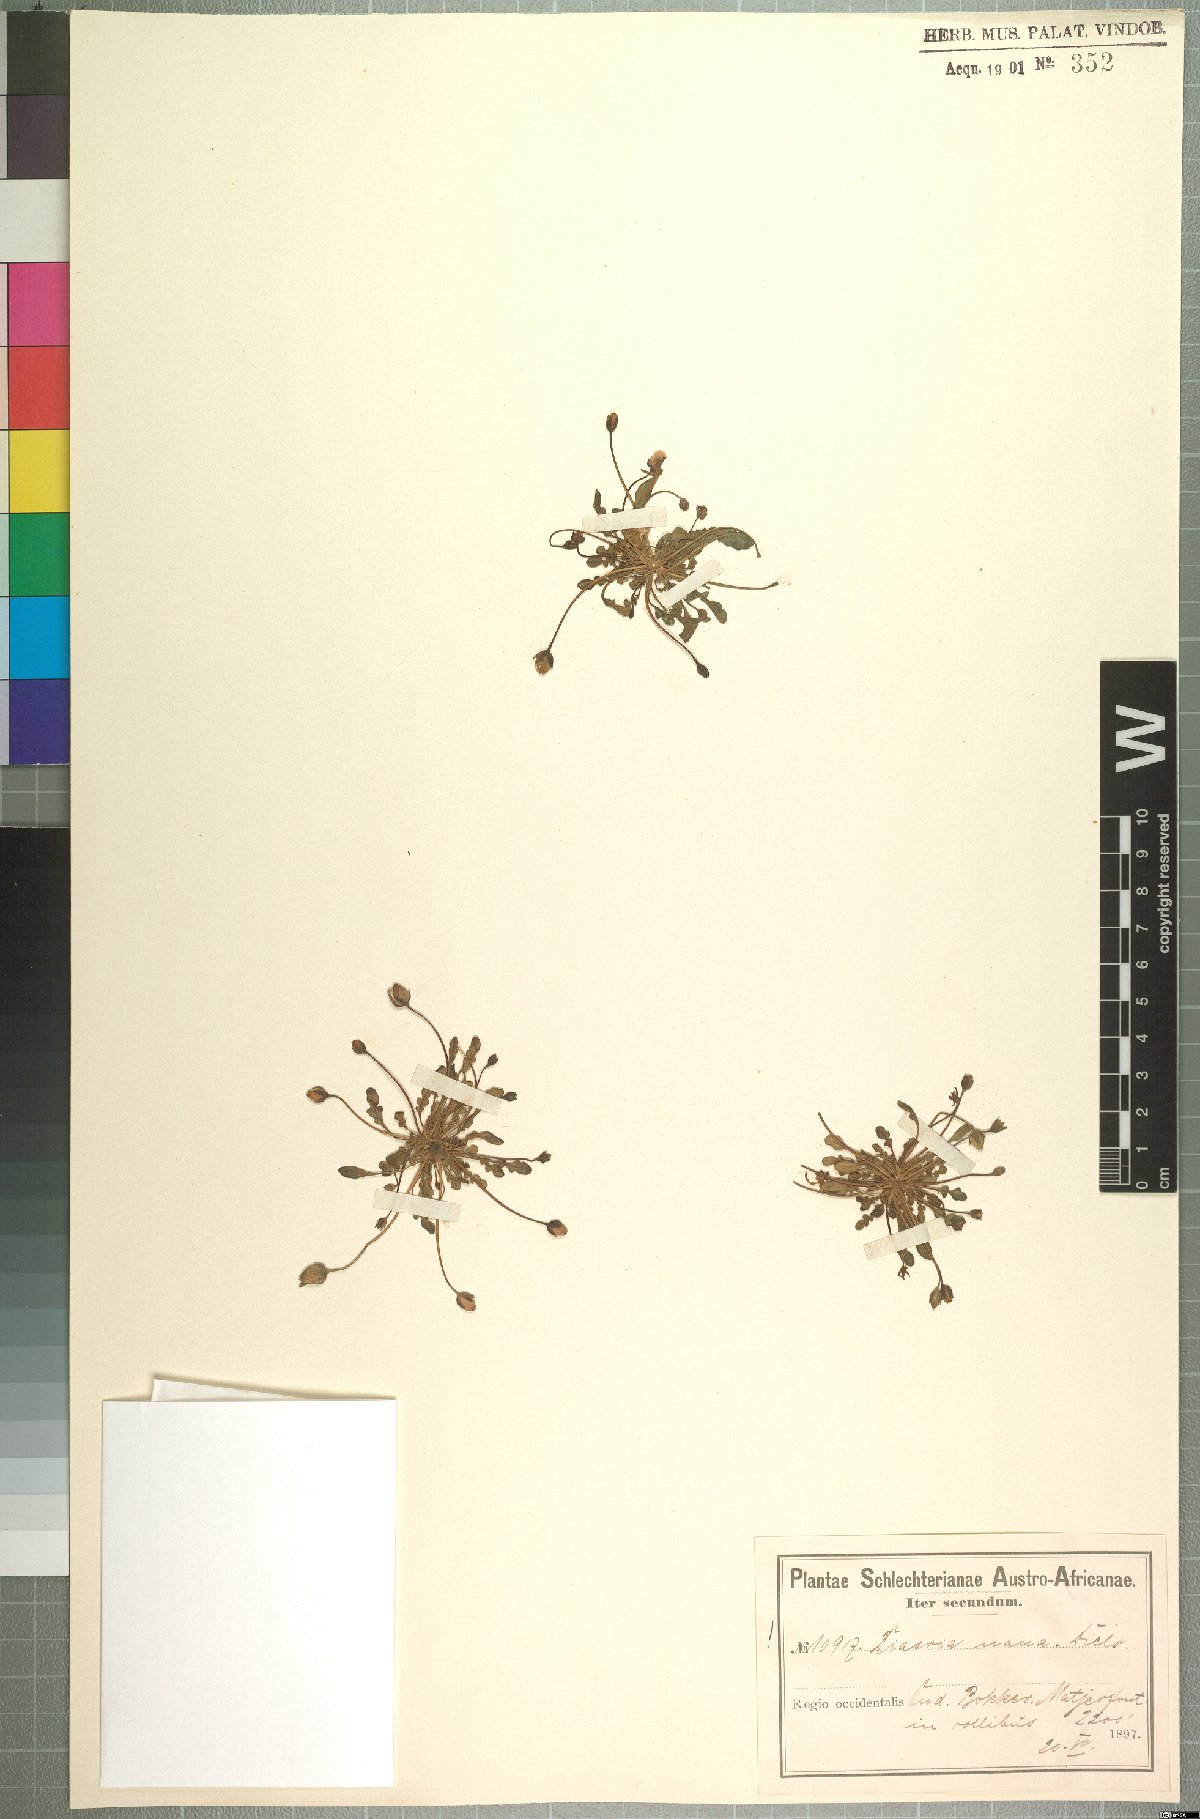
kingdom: Plantae
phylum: Tracheophyta
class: Magnoliopsida
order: Lamiales
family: Scrophulariaceae
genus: Diascia
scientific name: Diascia nana
